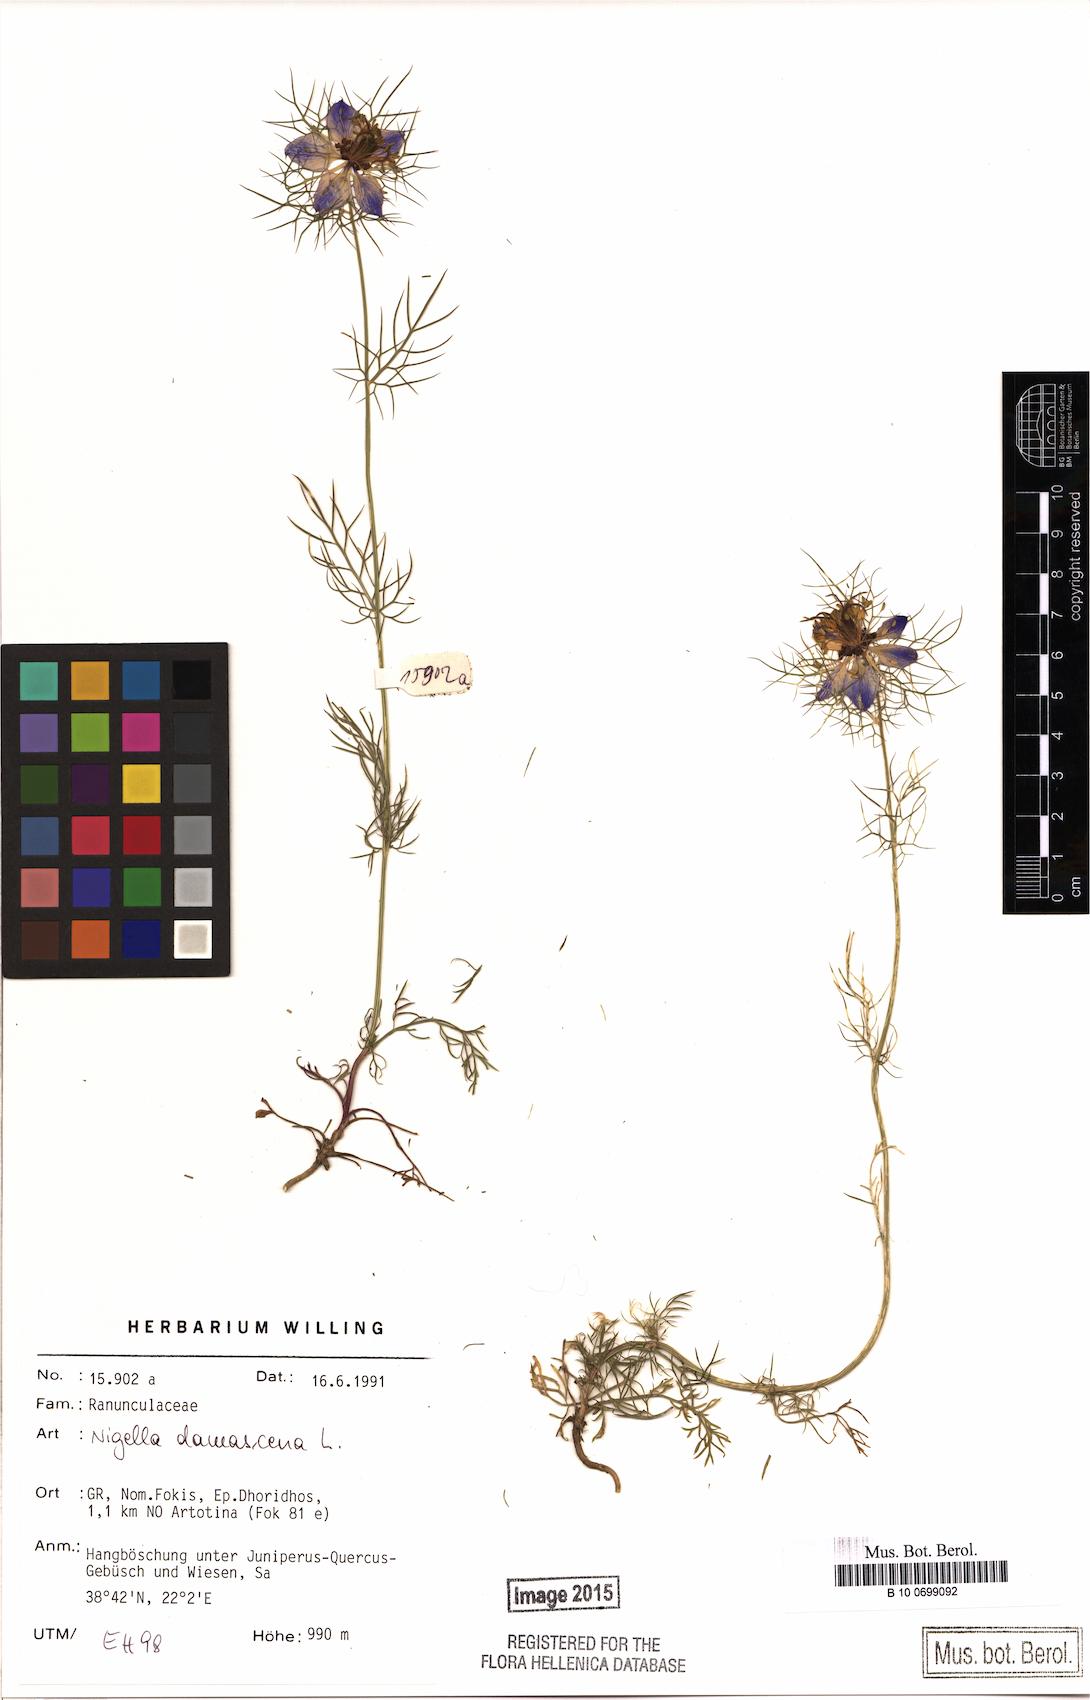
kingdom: Plantae
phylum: Tracheophyta
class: Magnoliopsida
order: Ranunculales
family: Ranunculaceae
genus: Nigella
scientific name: Nigella damascena
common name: Love-in-a-mist
